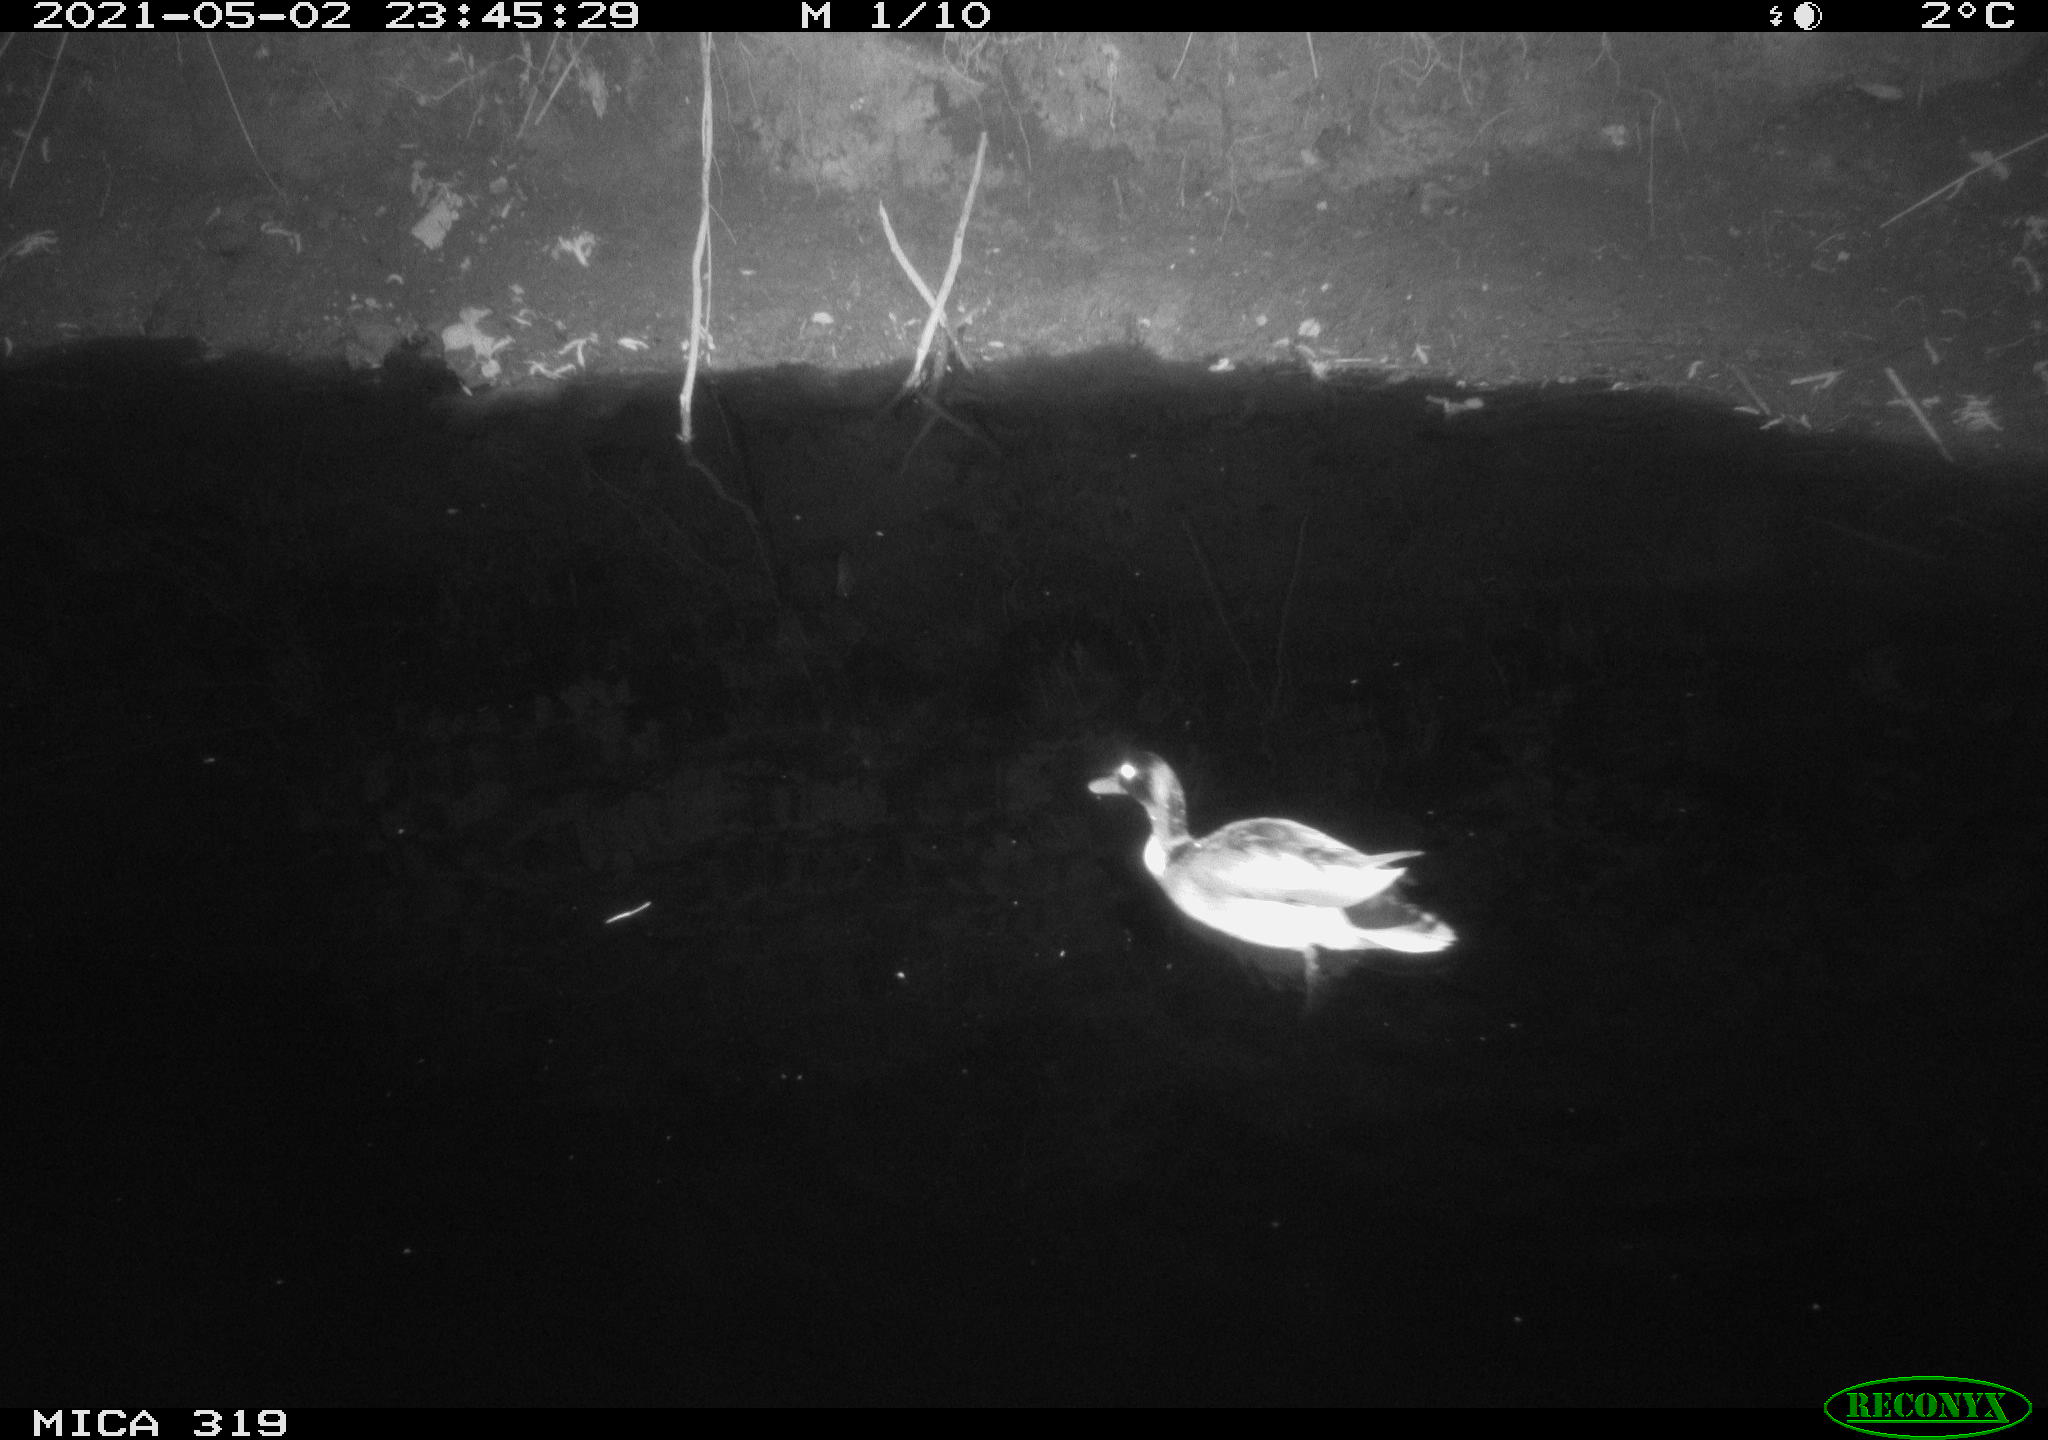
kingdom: Animalia
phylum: Chordata
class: Aves
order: Anseriformes
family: Anatidae
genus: Anas
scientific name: Anas platyrhynchos
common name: Mallard
